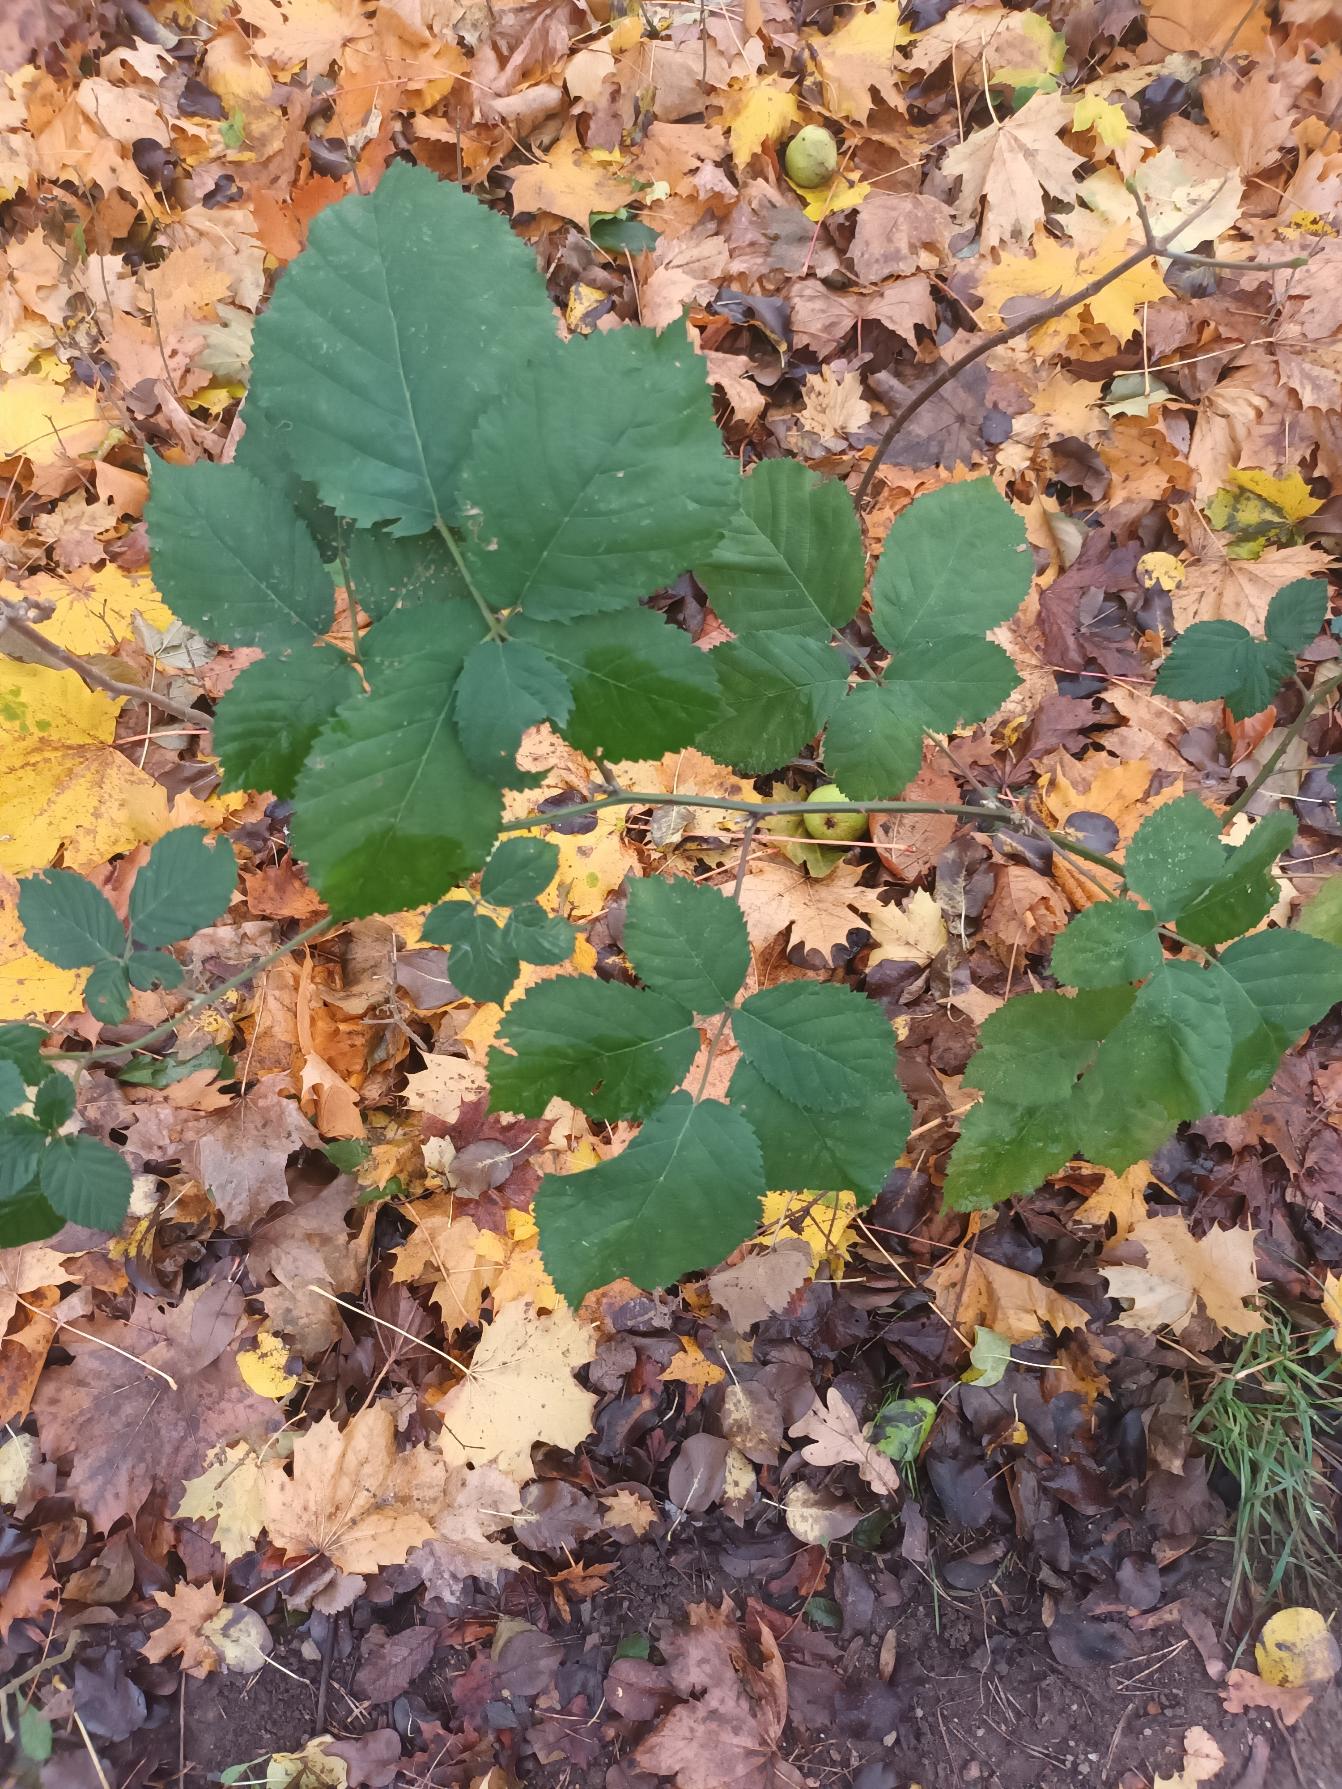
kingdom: Plantae
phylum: Tracheophyta
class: Magnoliopsida
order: Rosales
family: Rosaceae
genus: Rubus
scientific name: Rubus armeniacus
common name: Armensk brombær
